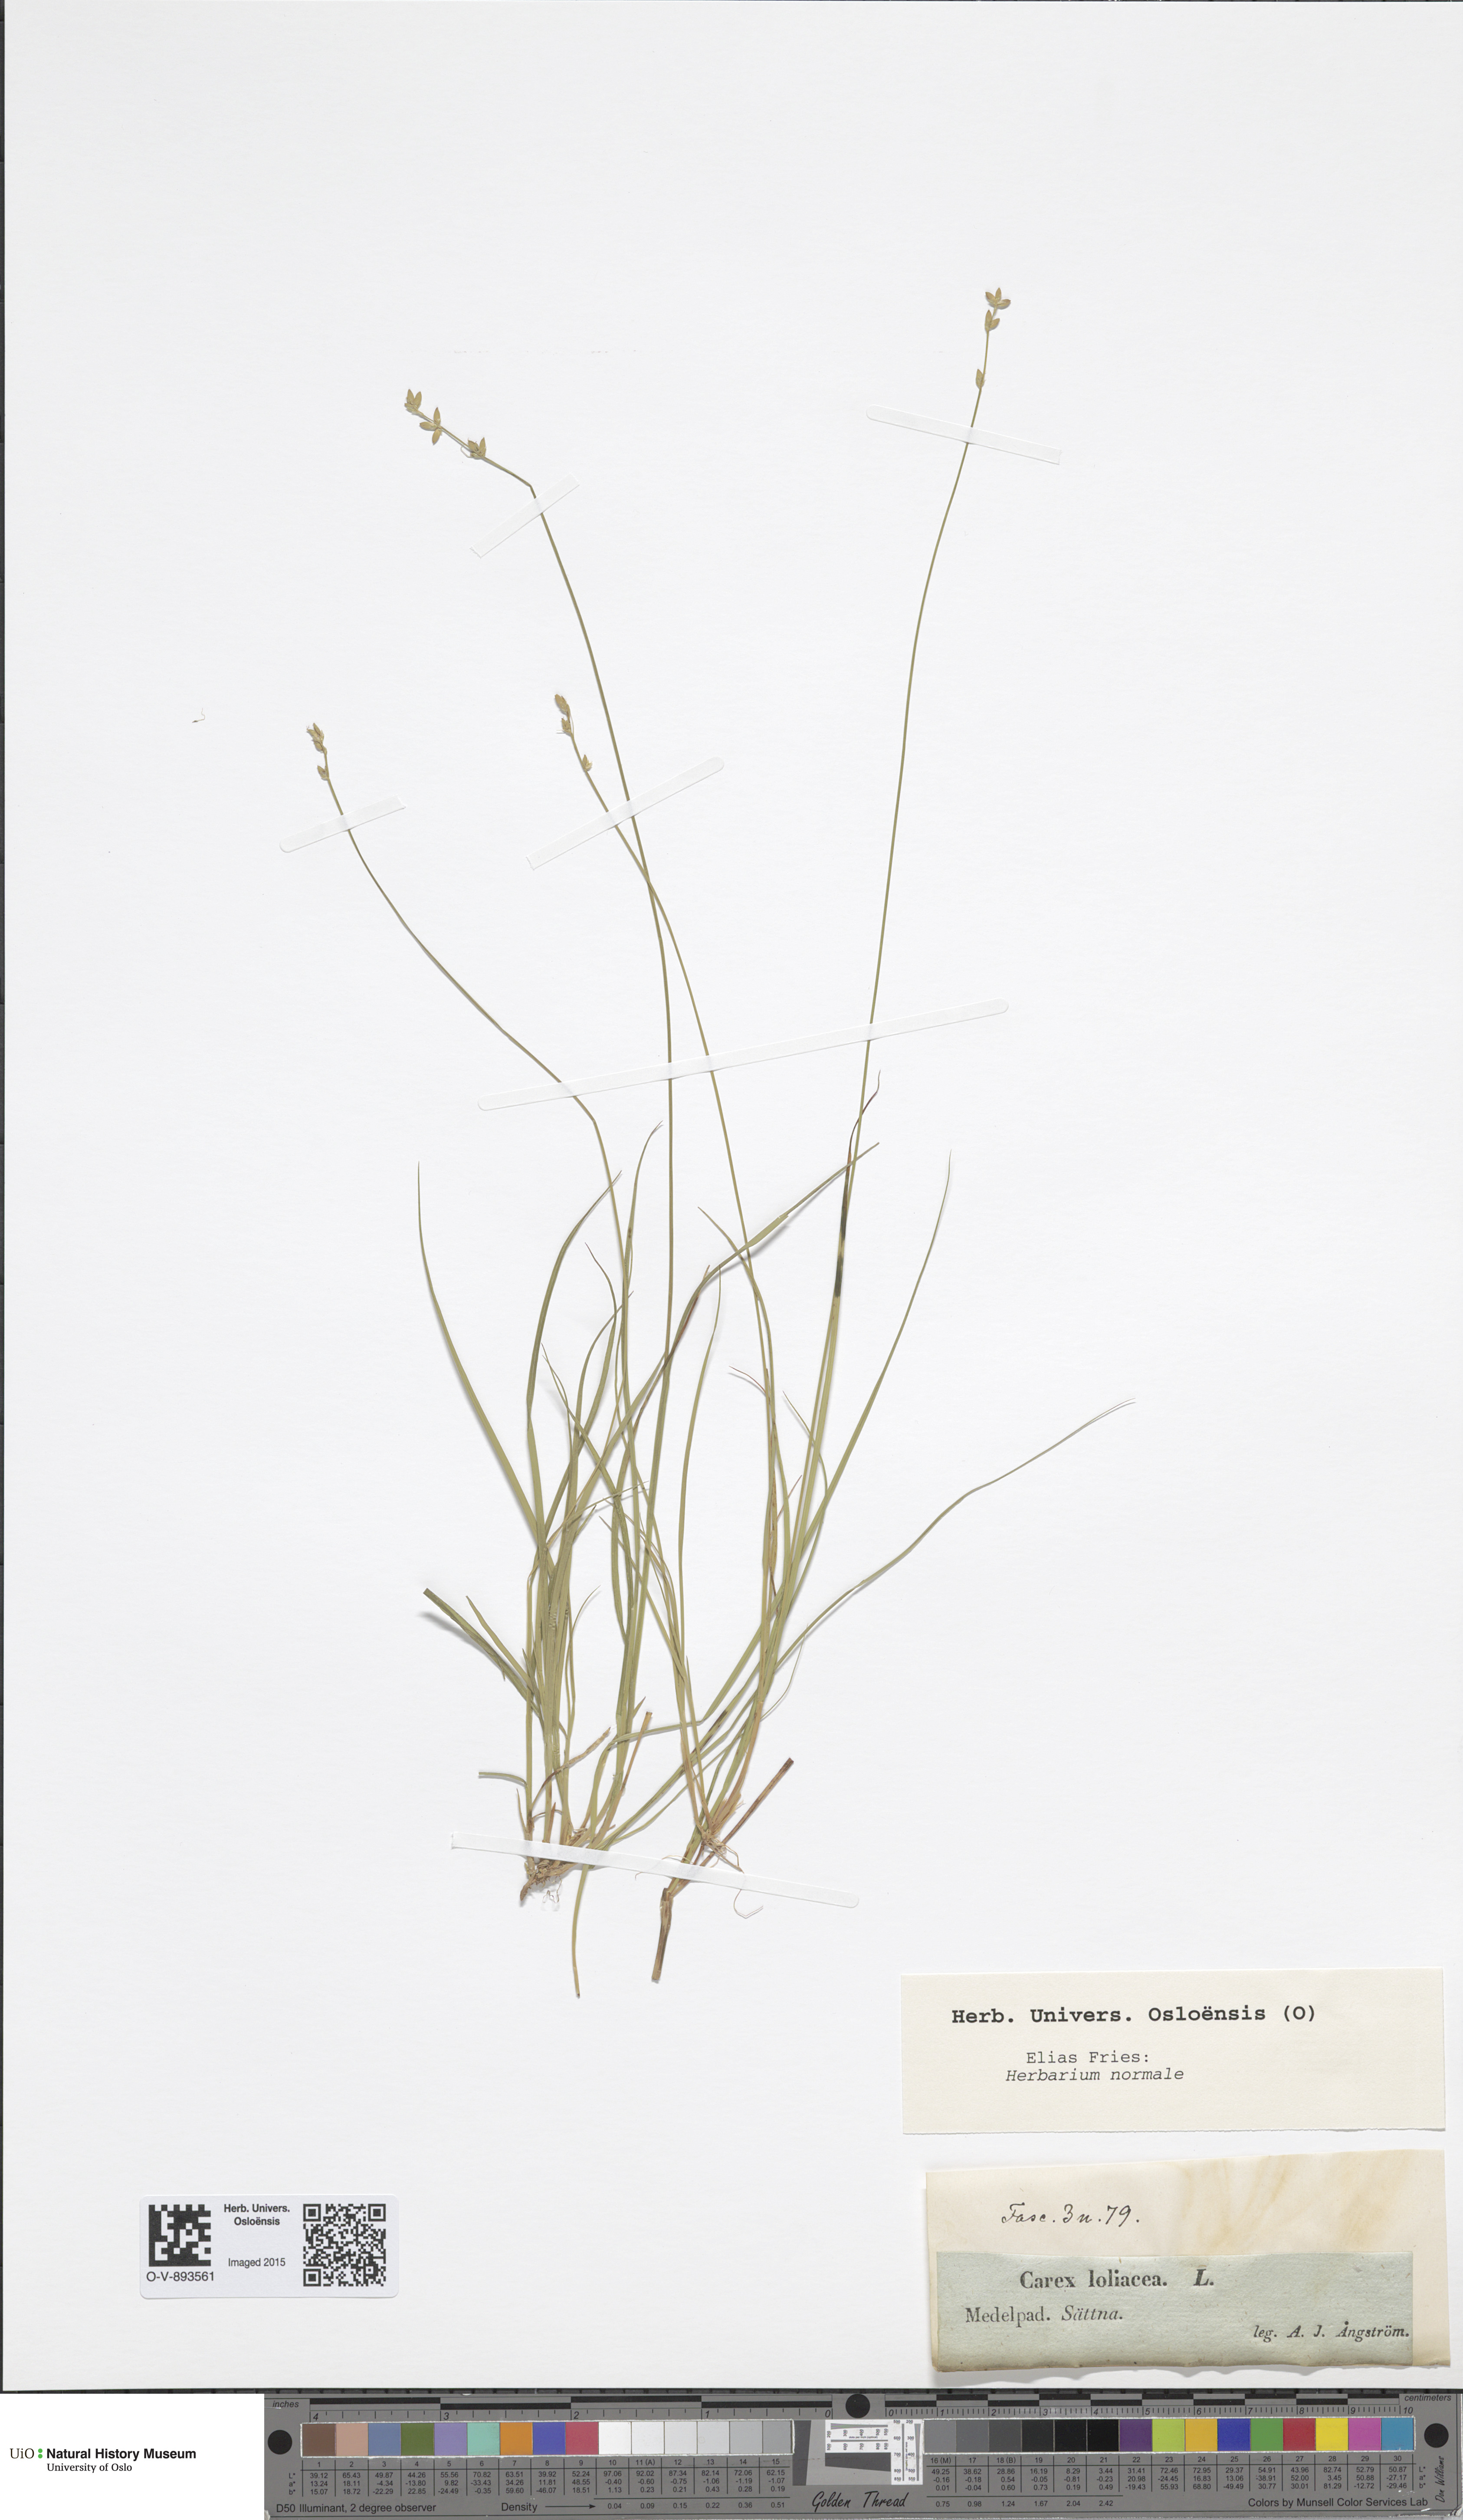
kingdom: Plantae
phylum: Tracheophyta
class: Liliopsida
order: Poales
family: Cyperaceae
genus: Carex
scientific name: Carex loliacea
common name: Ryegrass sedge
